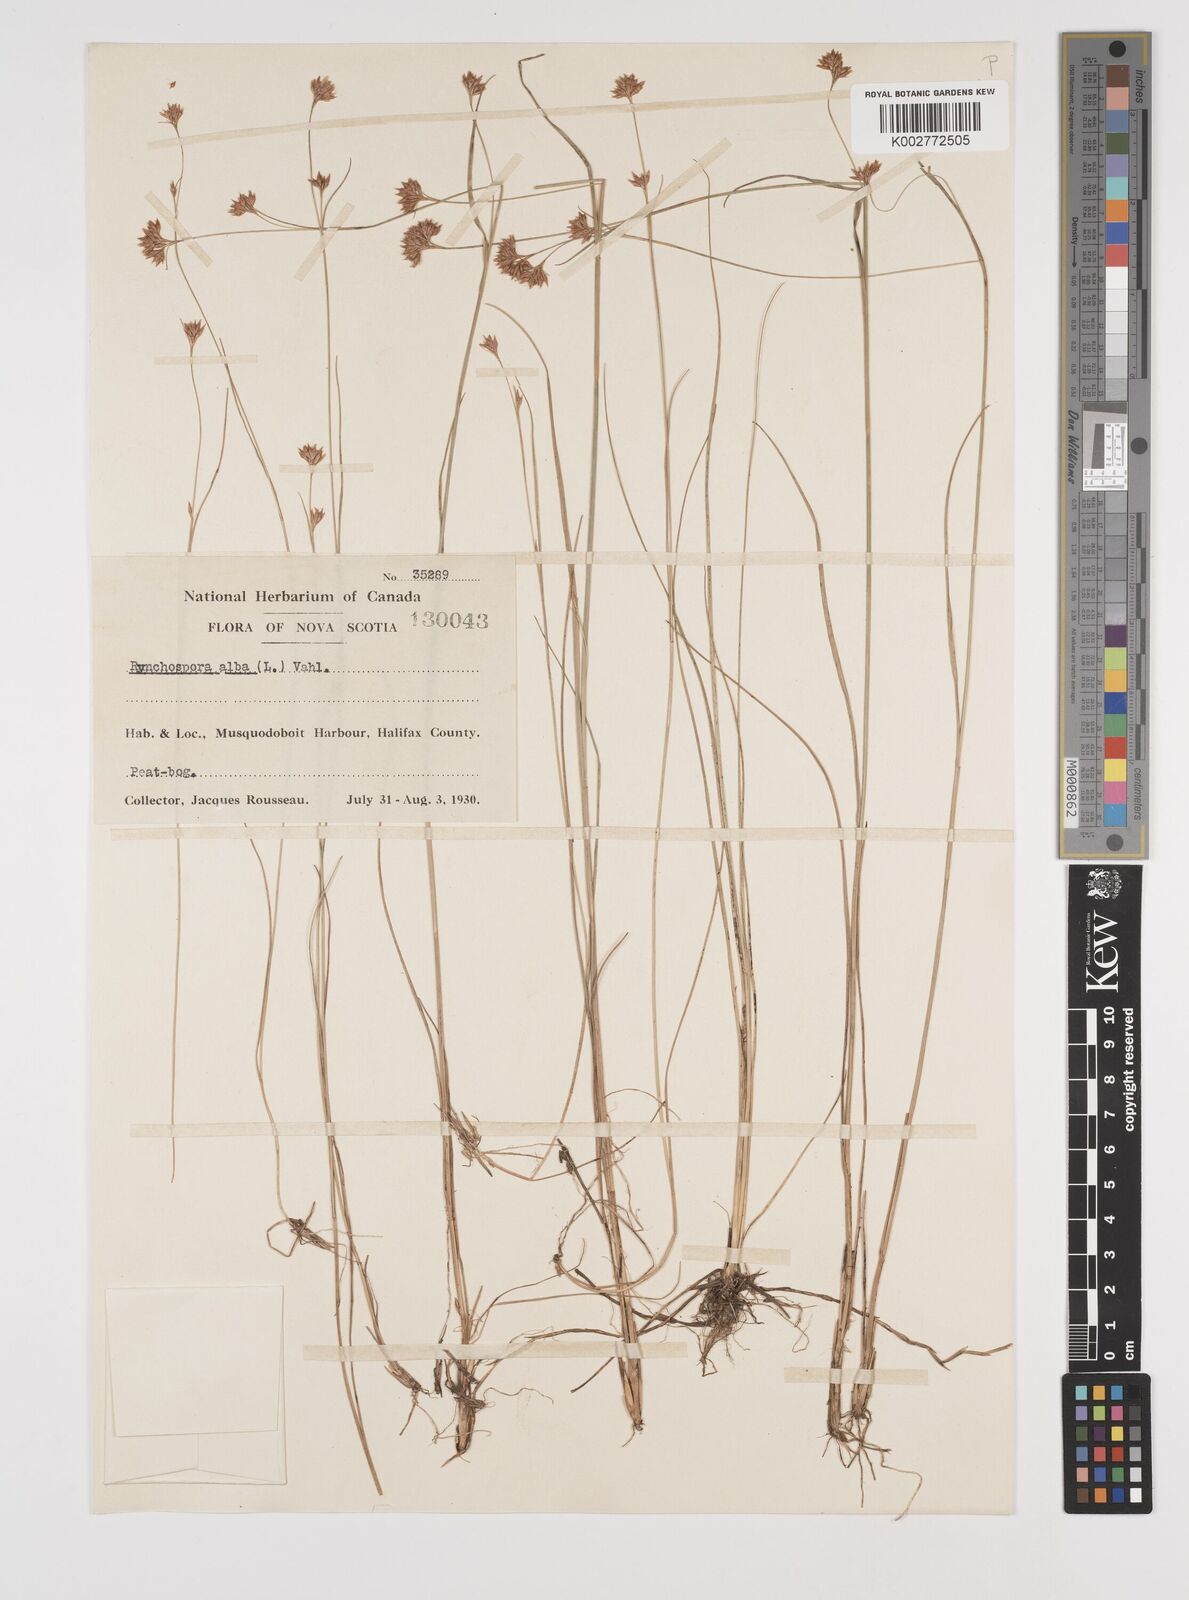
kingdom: Plantae
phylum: Tracheophyta
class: Liliopsida
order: Poales
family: Cyperaceae
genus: Rhynchospora
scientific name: Rhynchospora alba
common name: White beak-sedge
